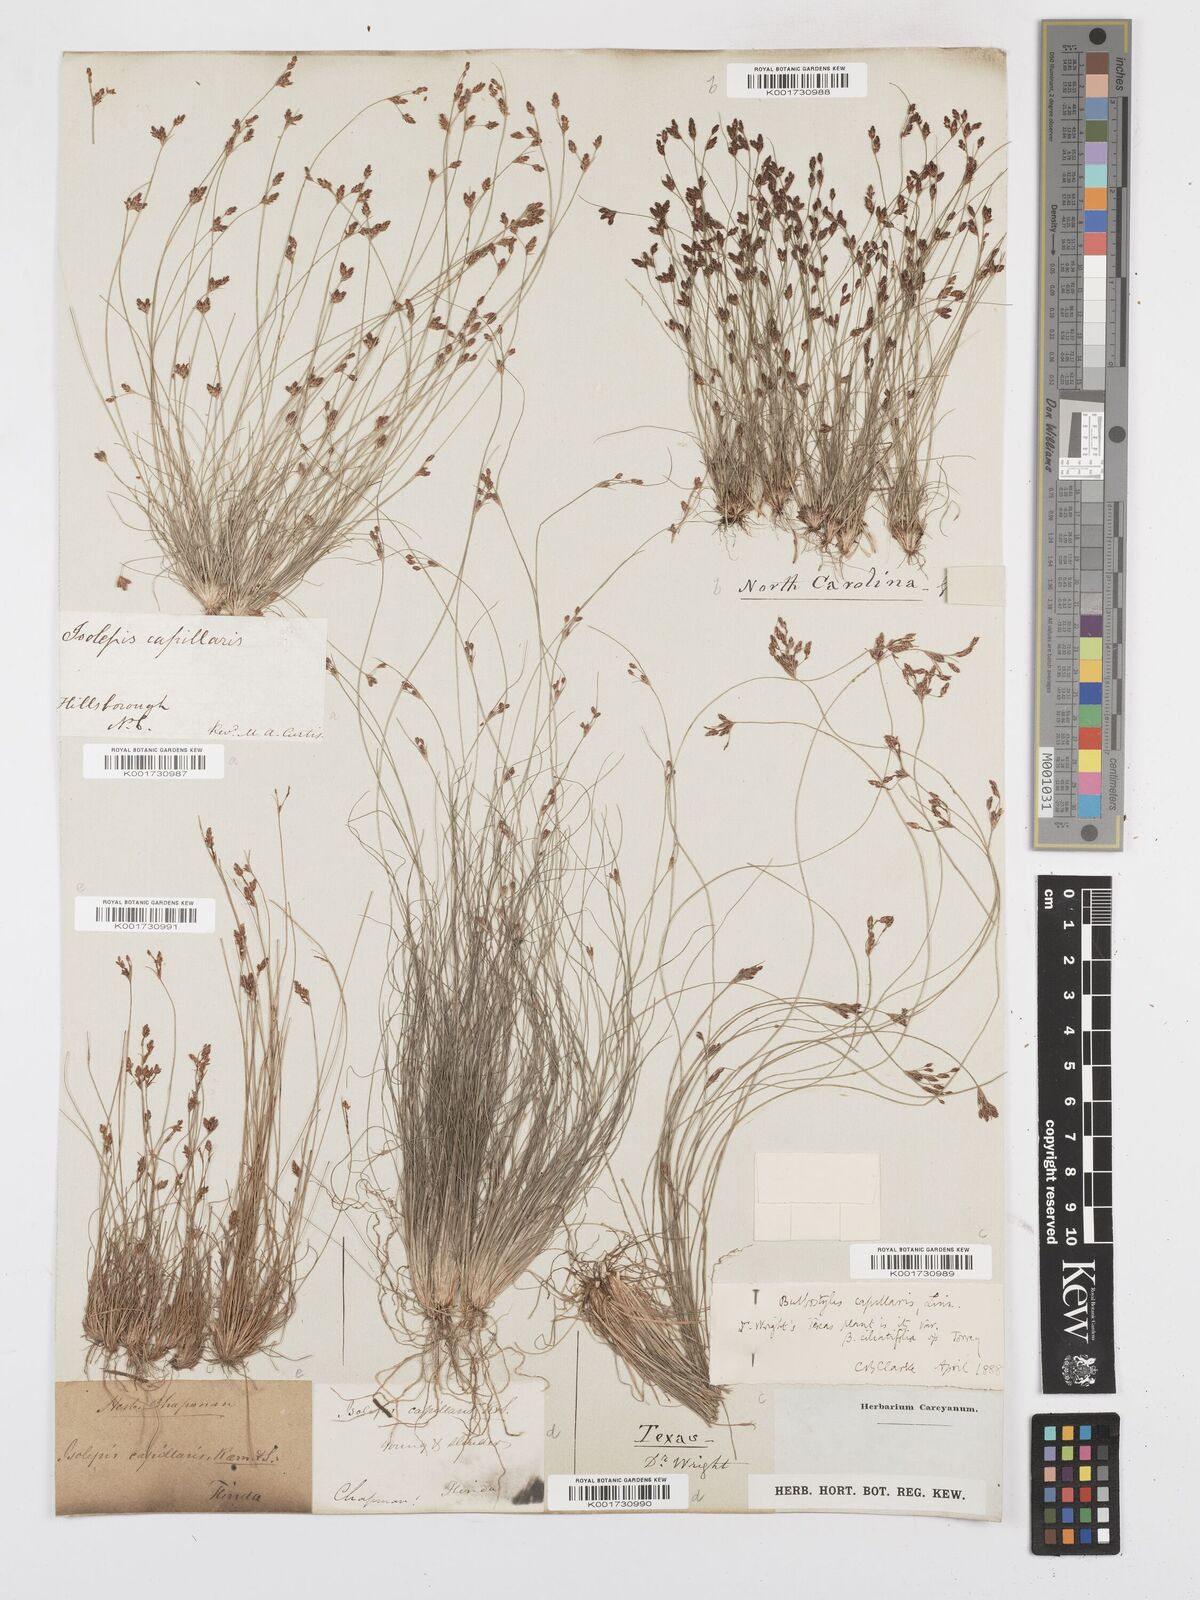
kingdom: Plantae
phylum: Tracheophyta
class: Liliopsida
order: Poales
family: Cyperaceae
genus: Bulbostylis
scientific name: Bulbostylis capillaris
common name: Densetuft hairsedge
